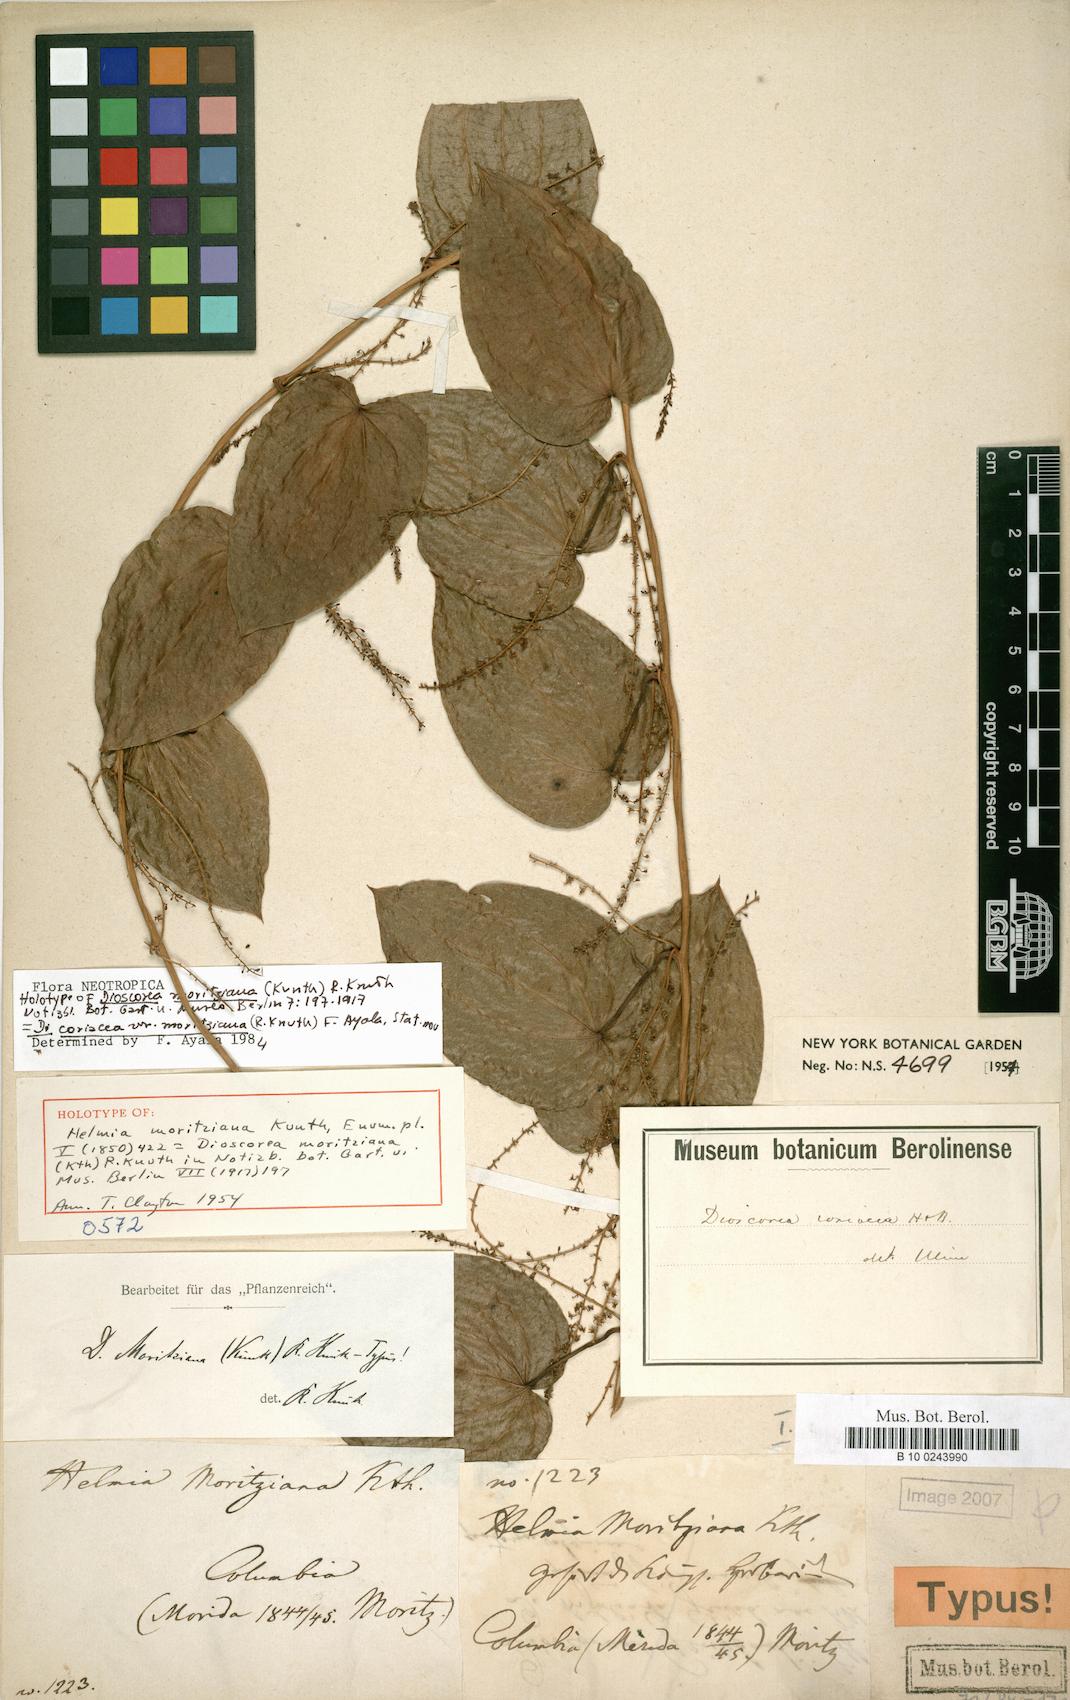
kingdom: Plantae
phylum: Tracheophyta
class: Liliopsida
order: Dioscoreales
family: Dioscoreaceae
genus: Dioscorea
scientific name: Dioscorea coriacea
